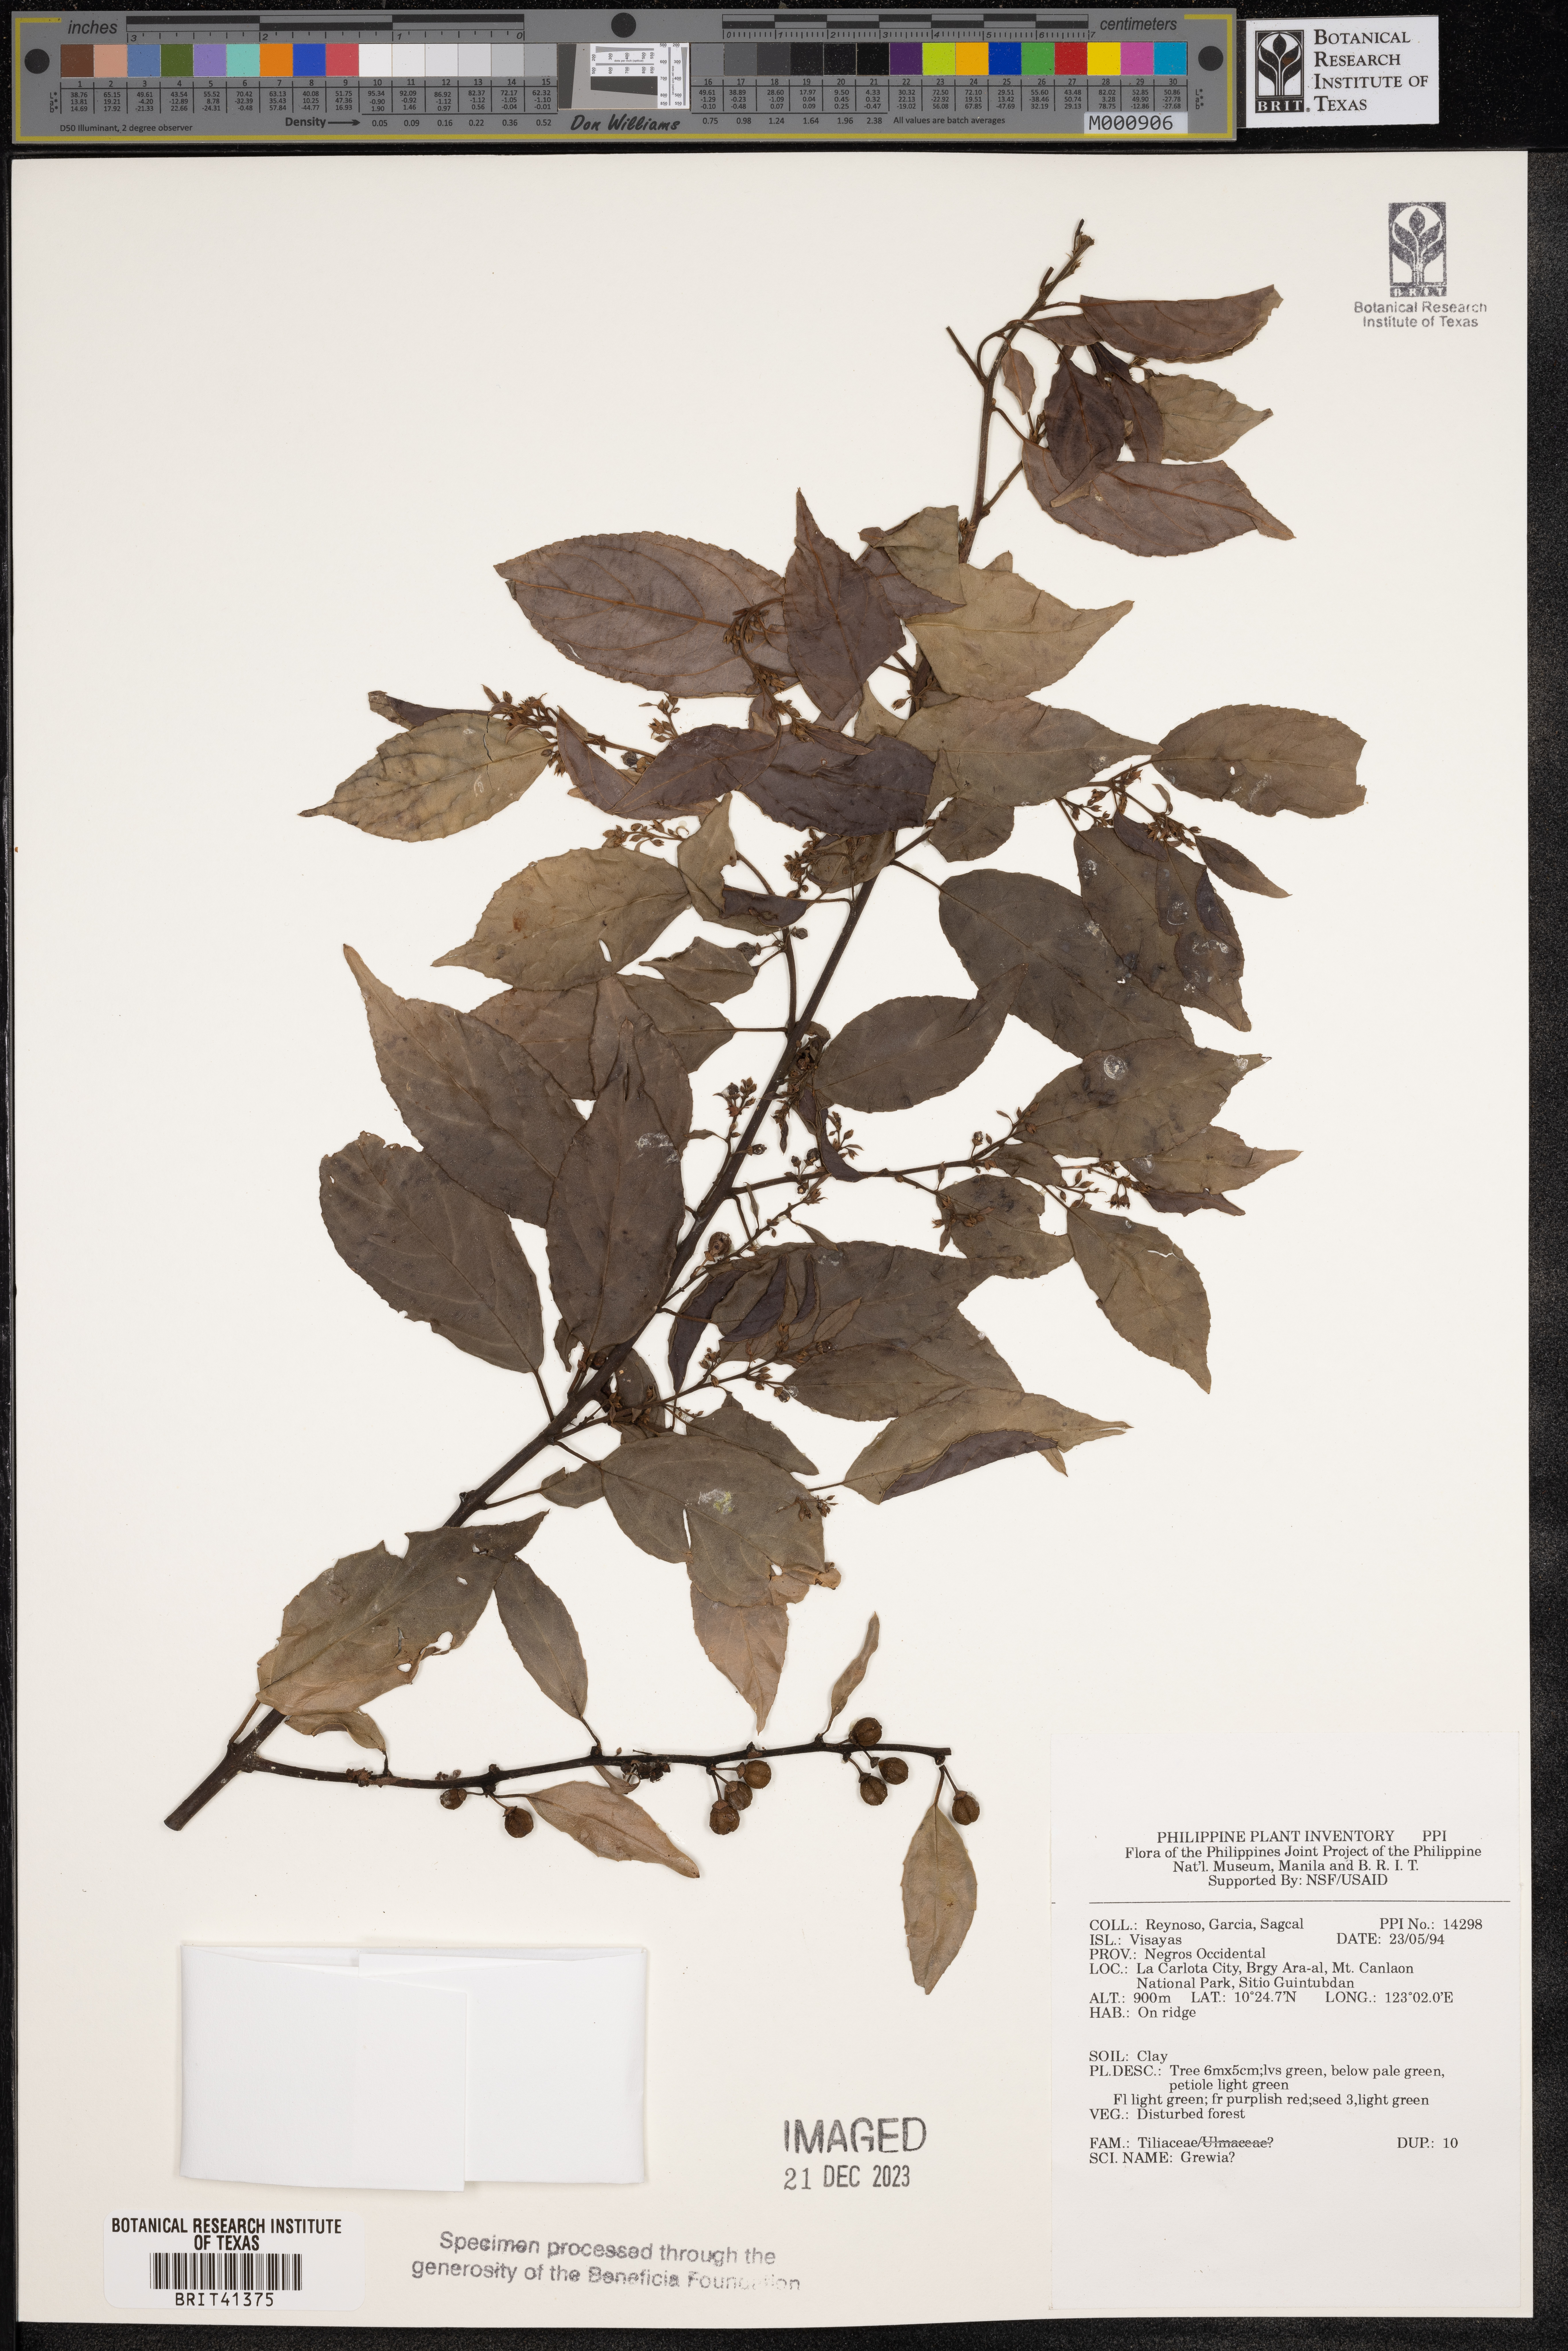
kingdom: Plantae
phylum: Tracheophyta
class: Magnoliopsida
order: Malvales
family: Malvaceae
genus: Grewia
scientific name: Grewia
